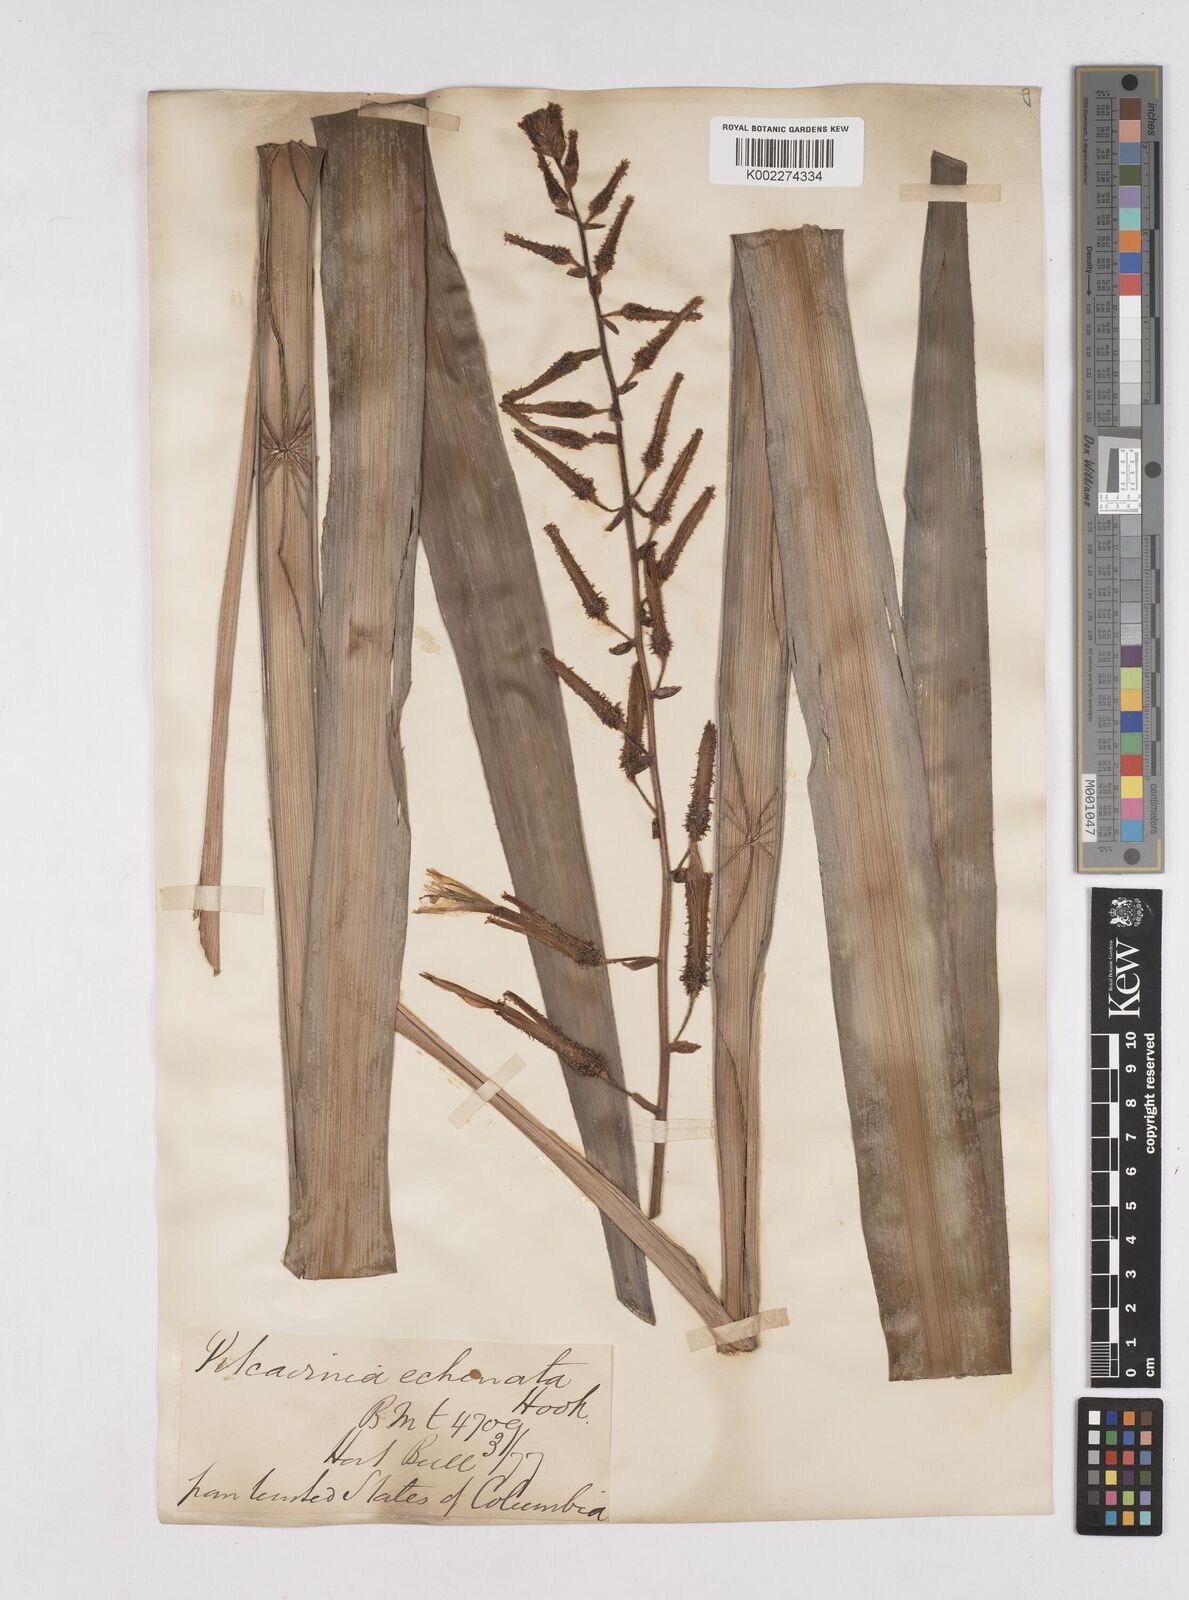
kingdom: Plantae
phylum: Tracheophyta
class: Liliopsida
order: Poales
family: Bromeliaceae
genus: Pitcairnia
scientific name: Pitcairnia echinata
